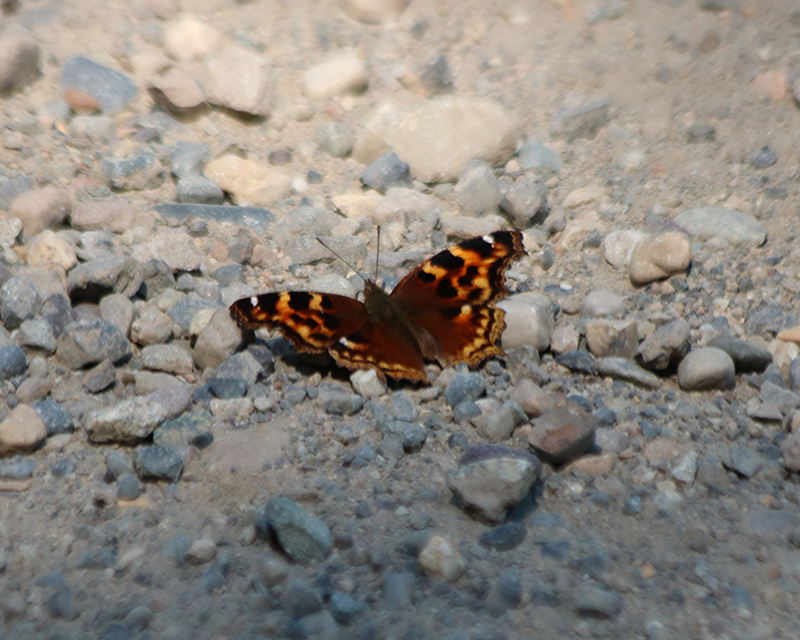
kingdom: Animalia
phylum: Arthropoda
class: Insecta
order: Lepidoptera
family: Nymphalidae
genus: Polygonia
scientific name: Polygonia vaualbum
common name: Compton Tortoiseshell
